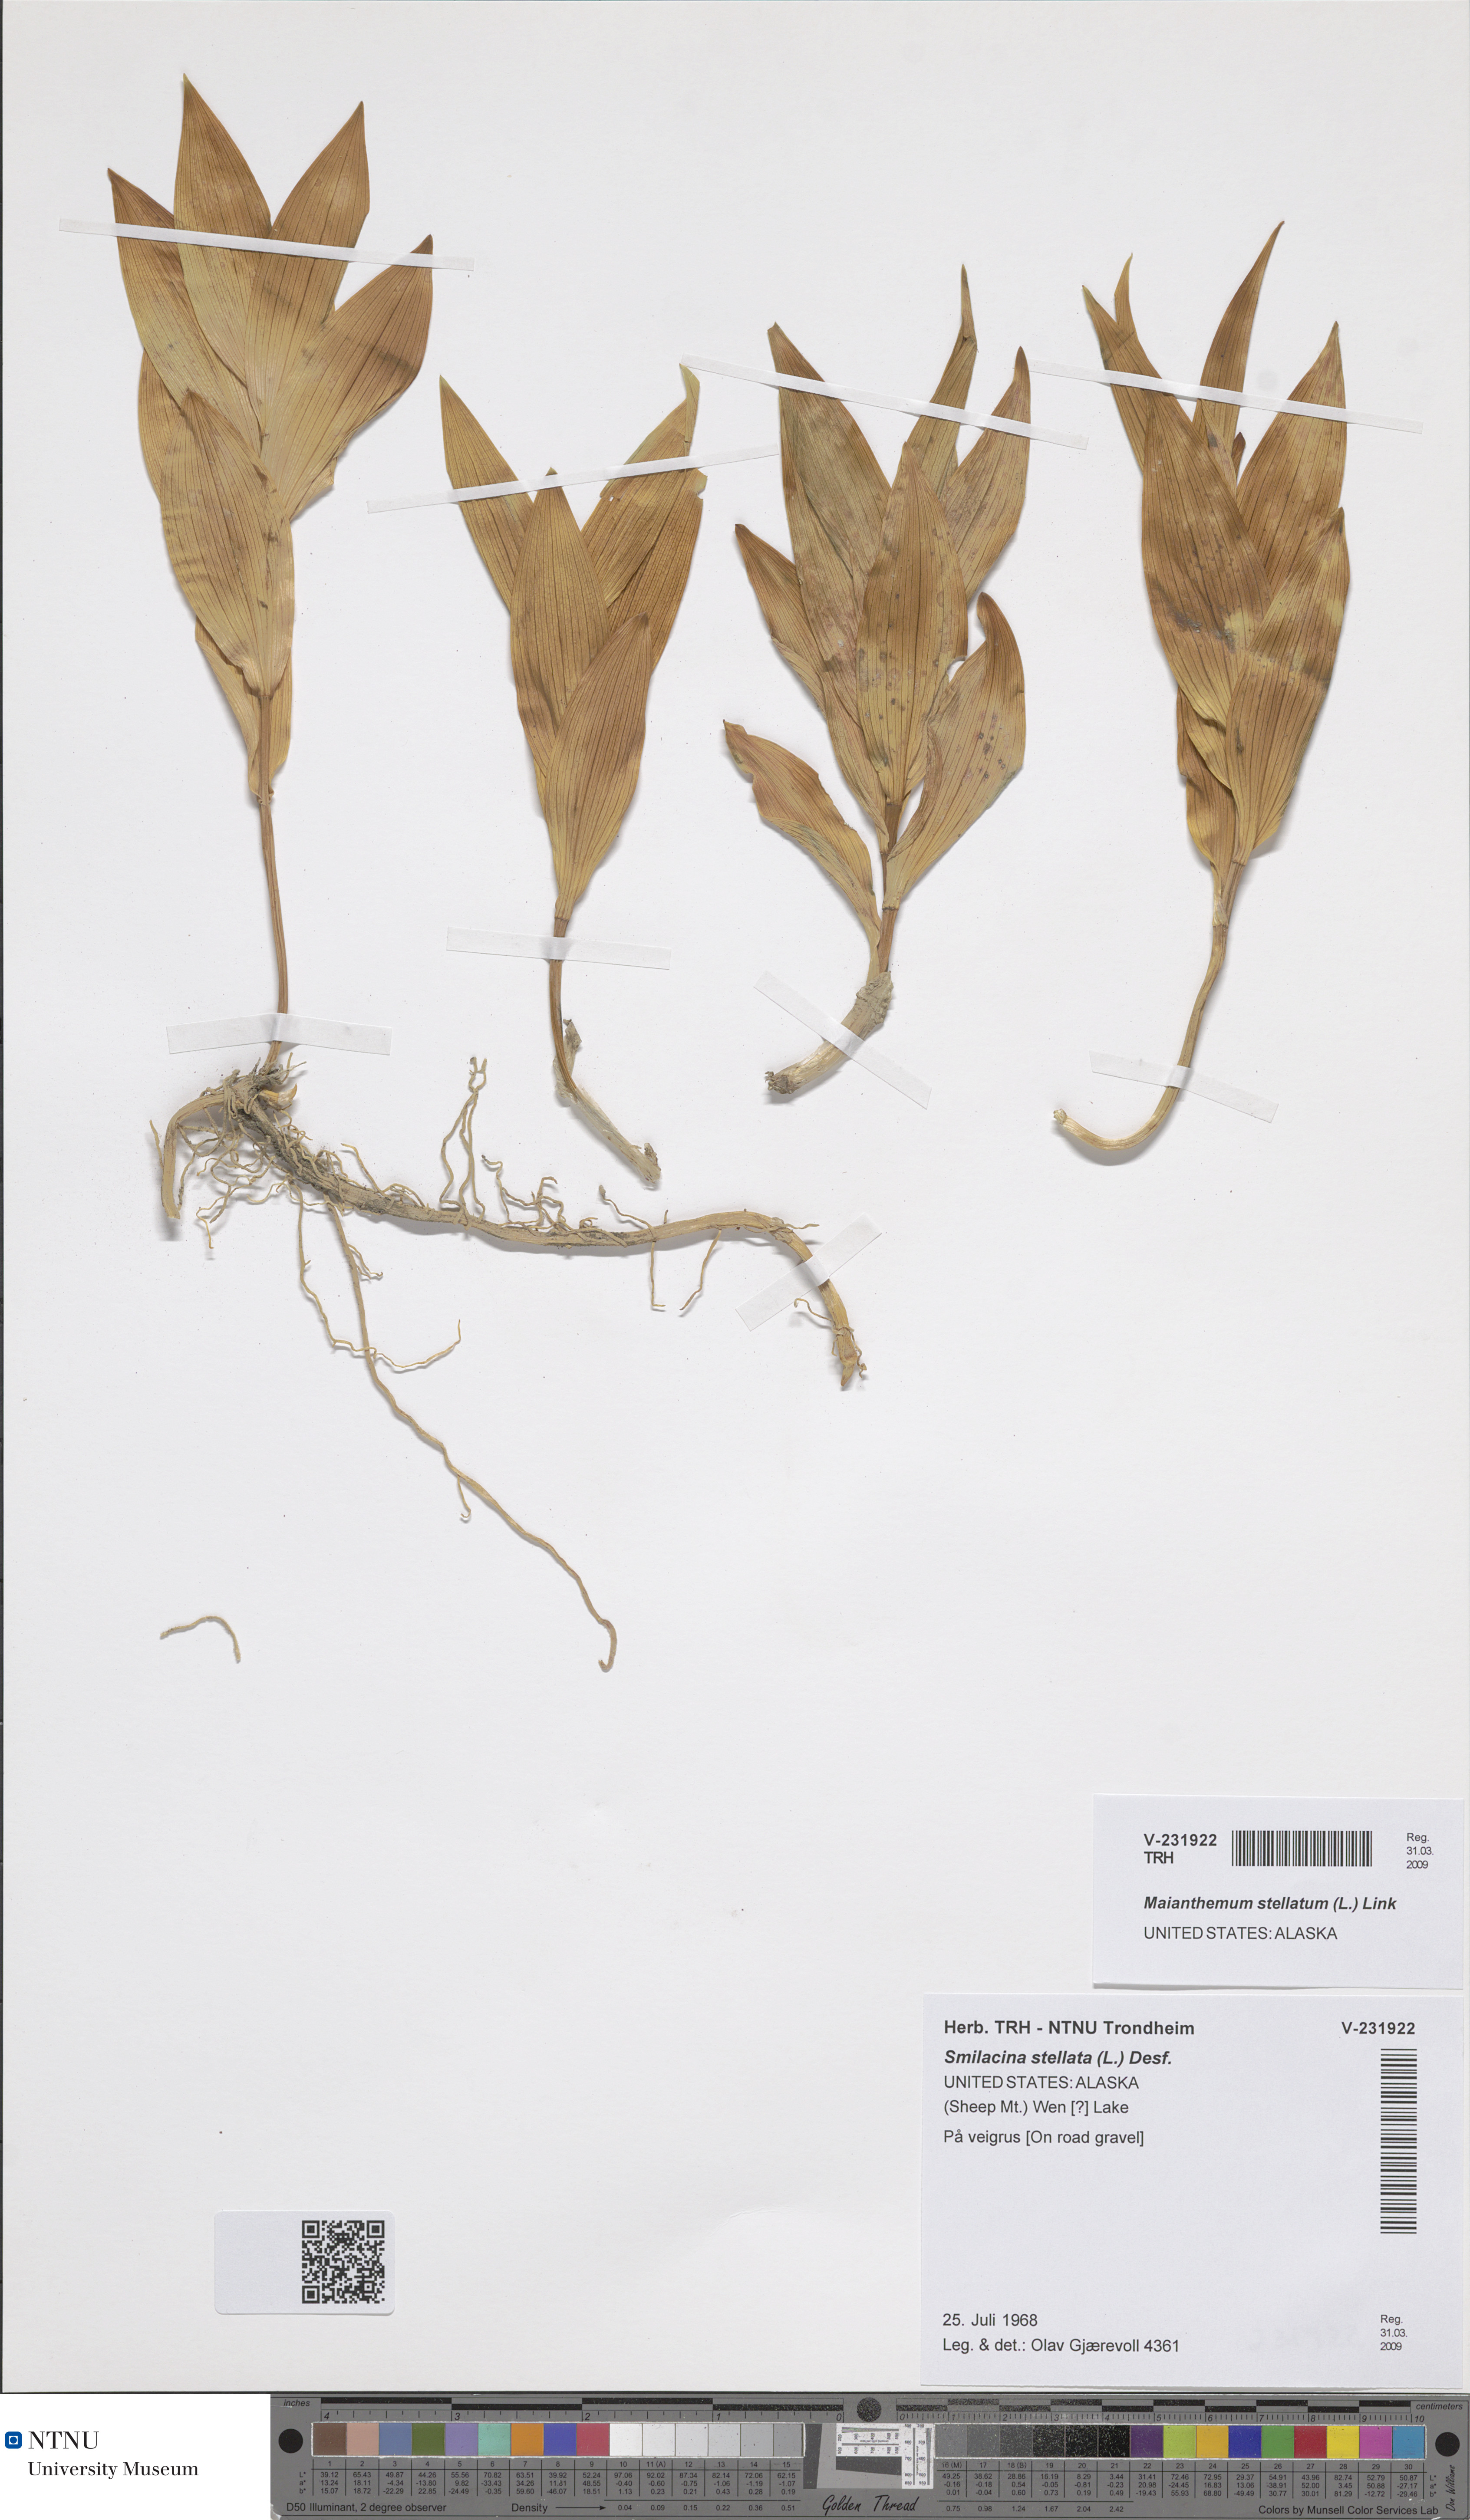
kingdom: Plantae
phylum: Tracheophyta
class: Liliopsida
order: Asparagales
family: Asparagaceae
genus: Maianthemum
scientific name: Maianthemum stellatum
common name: Little false solomon's seal
